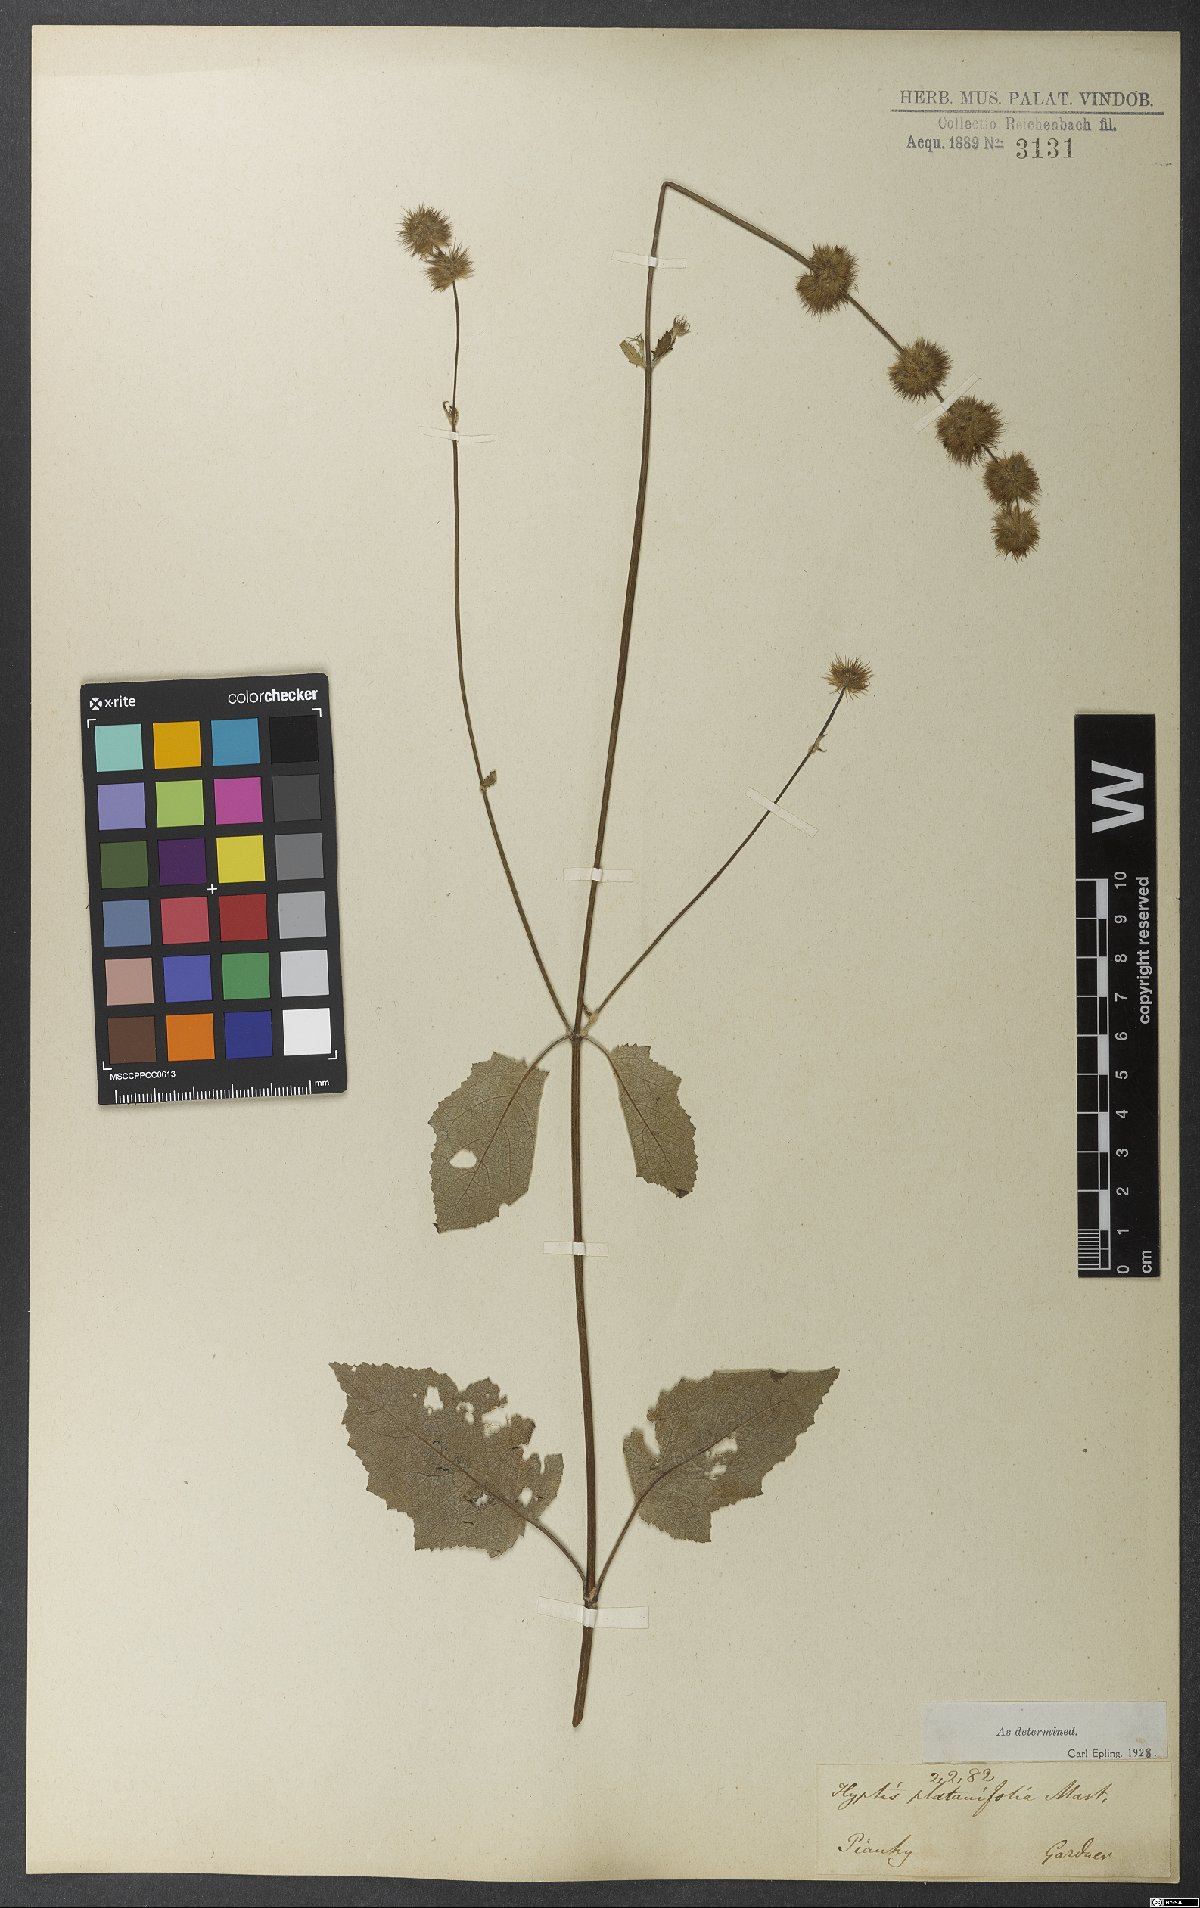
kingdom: Plantae
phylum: Tracheophyta
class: Magnoliopsida
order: Lamiales
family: Lamiaceae
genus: Gymneia
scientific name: Gymneia platanifolia
